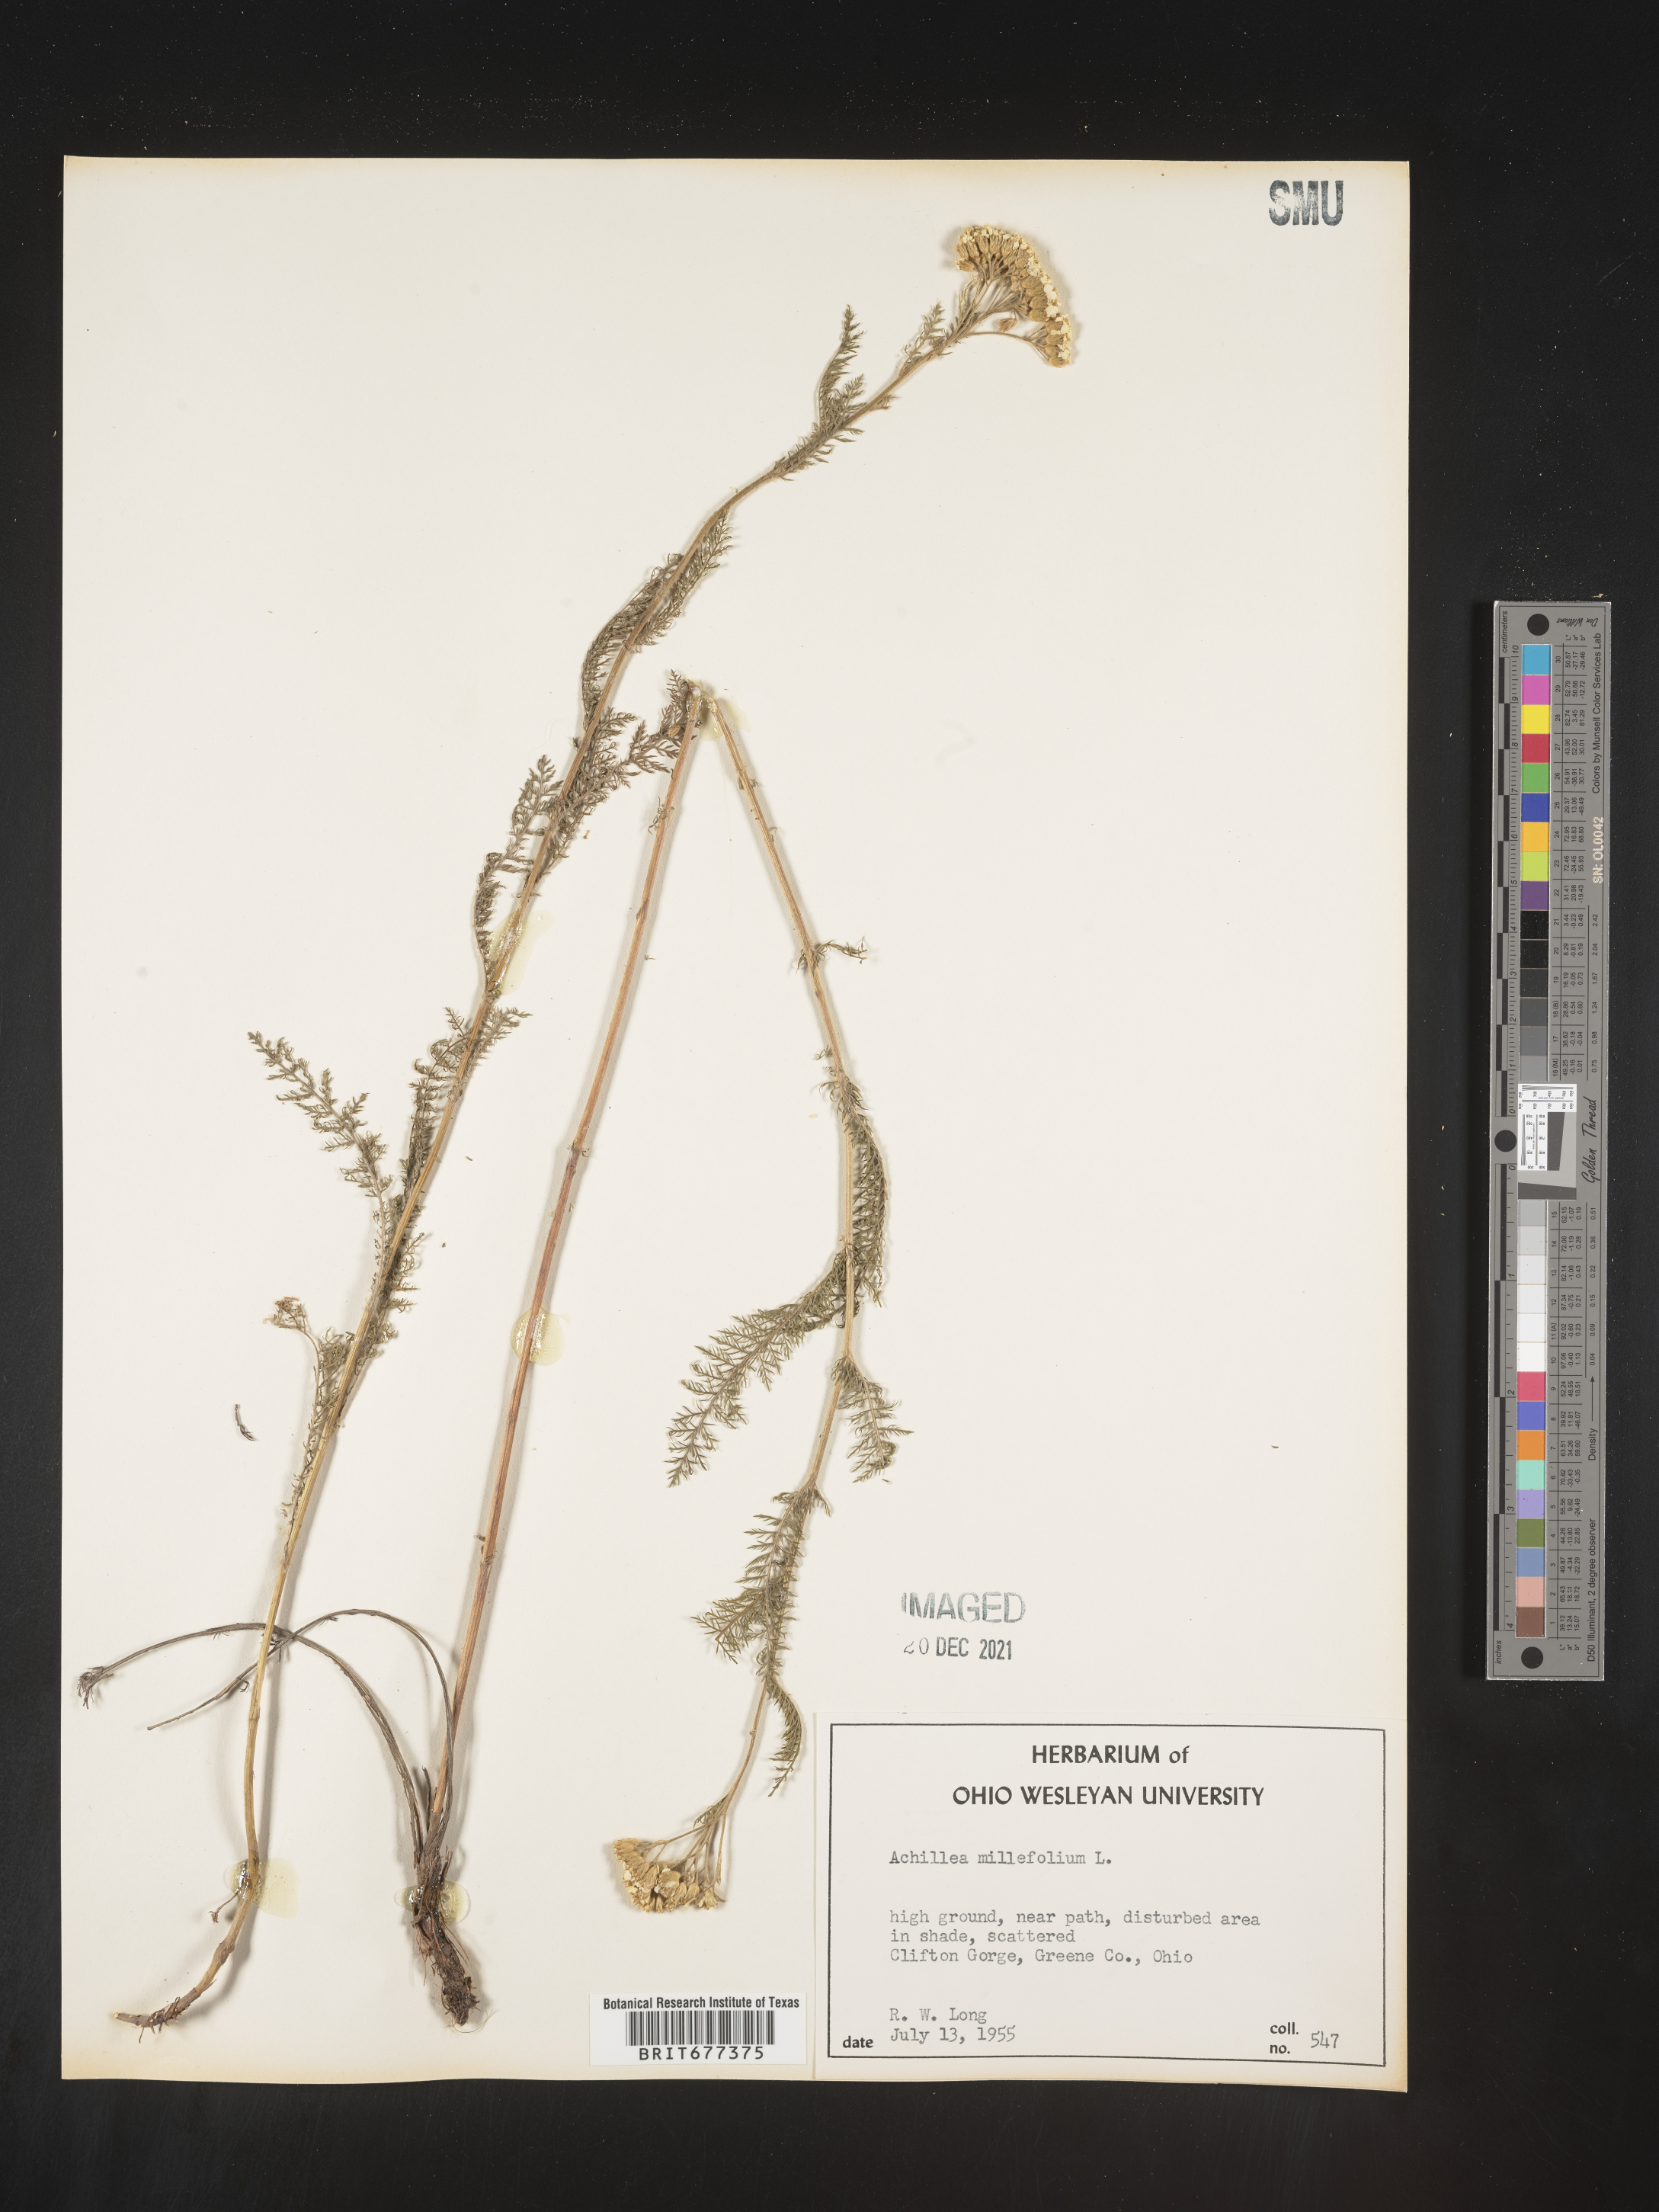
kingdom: Plantae
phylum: Tracheophyta
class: Magnoliopsida
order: Asterales
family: Asteraceae
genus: Achillea
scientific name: Achillea millefolium
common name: Yarrow
